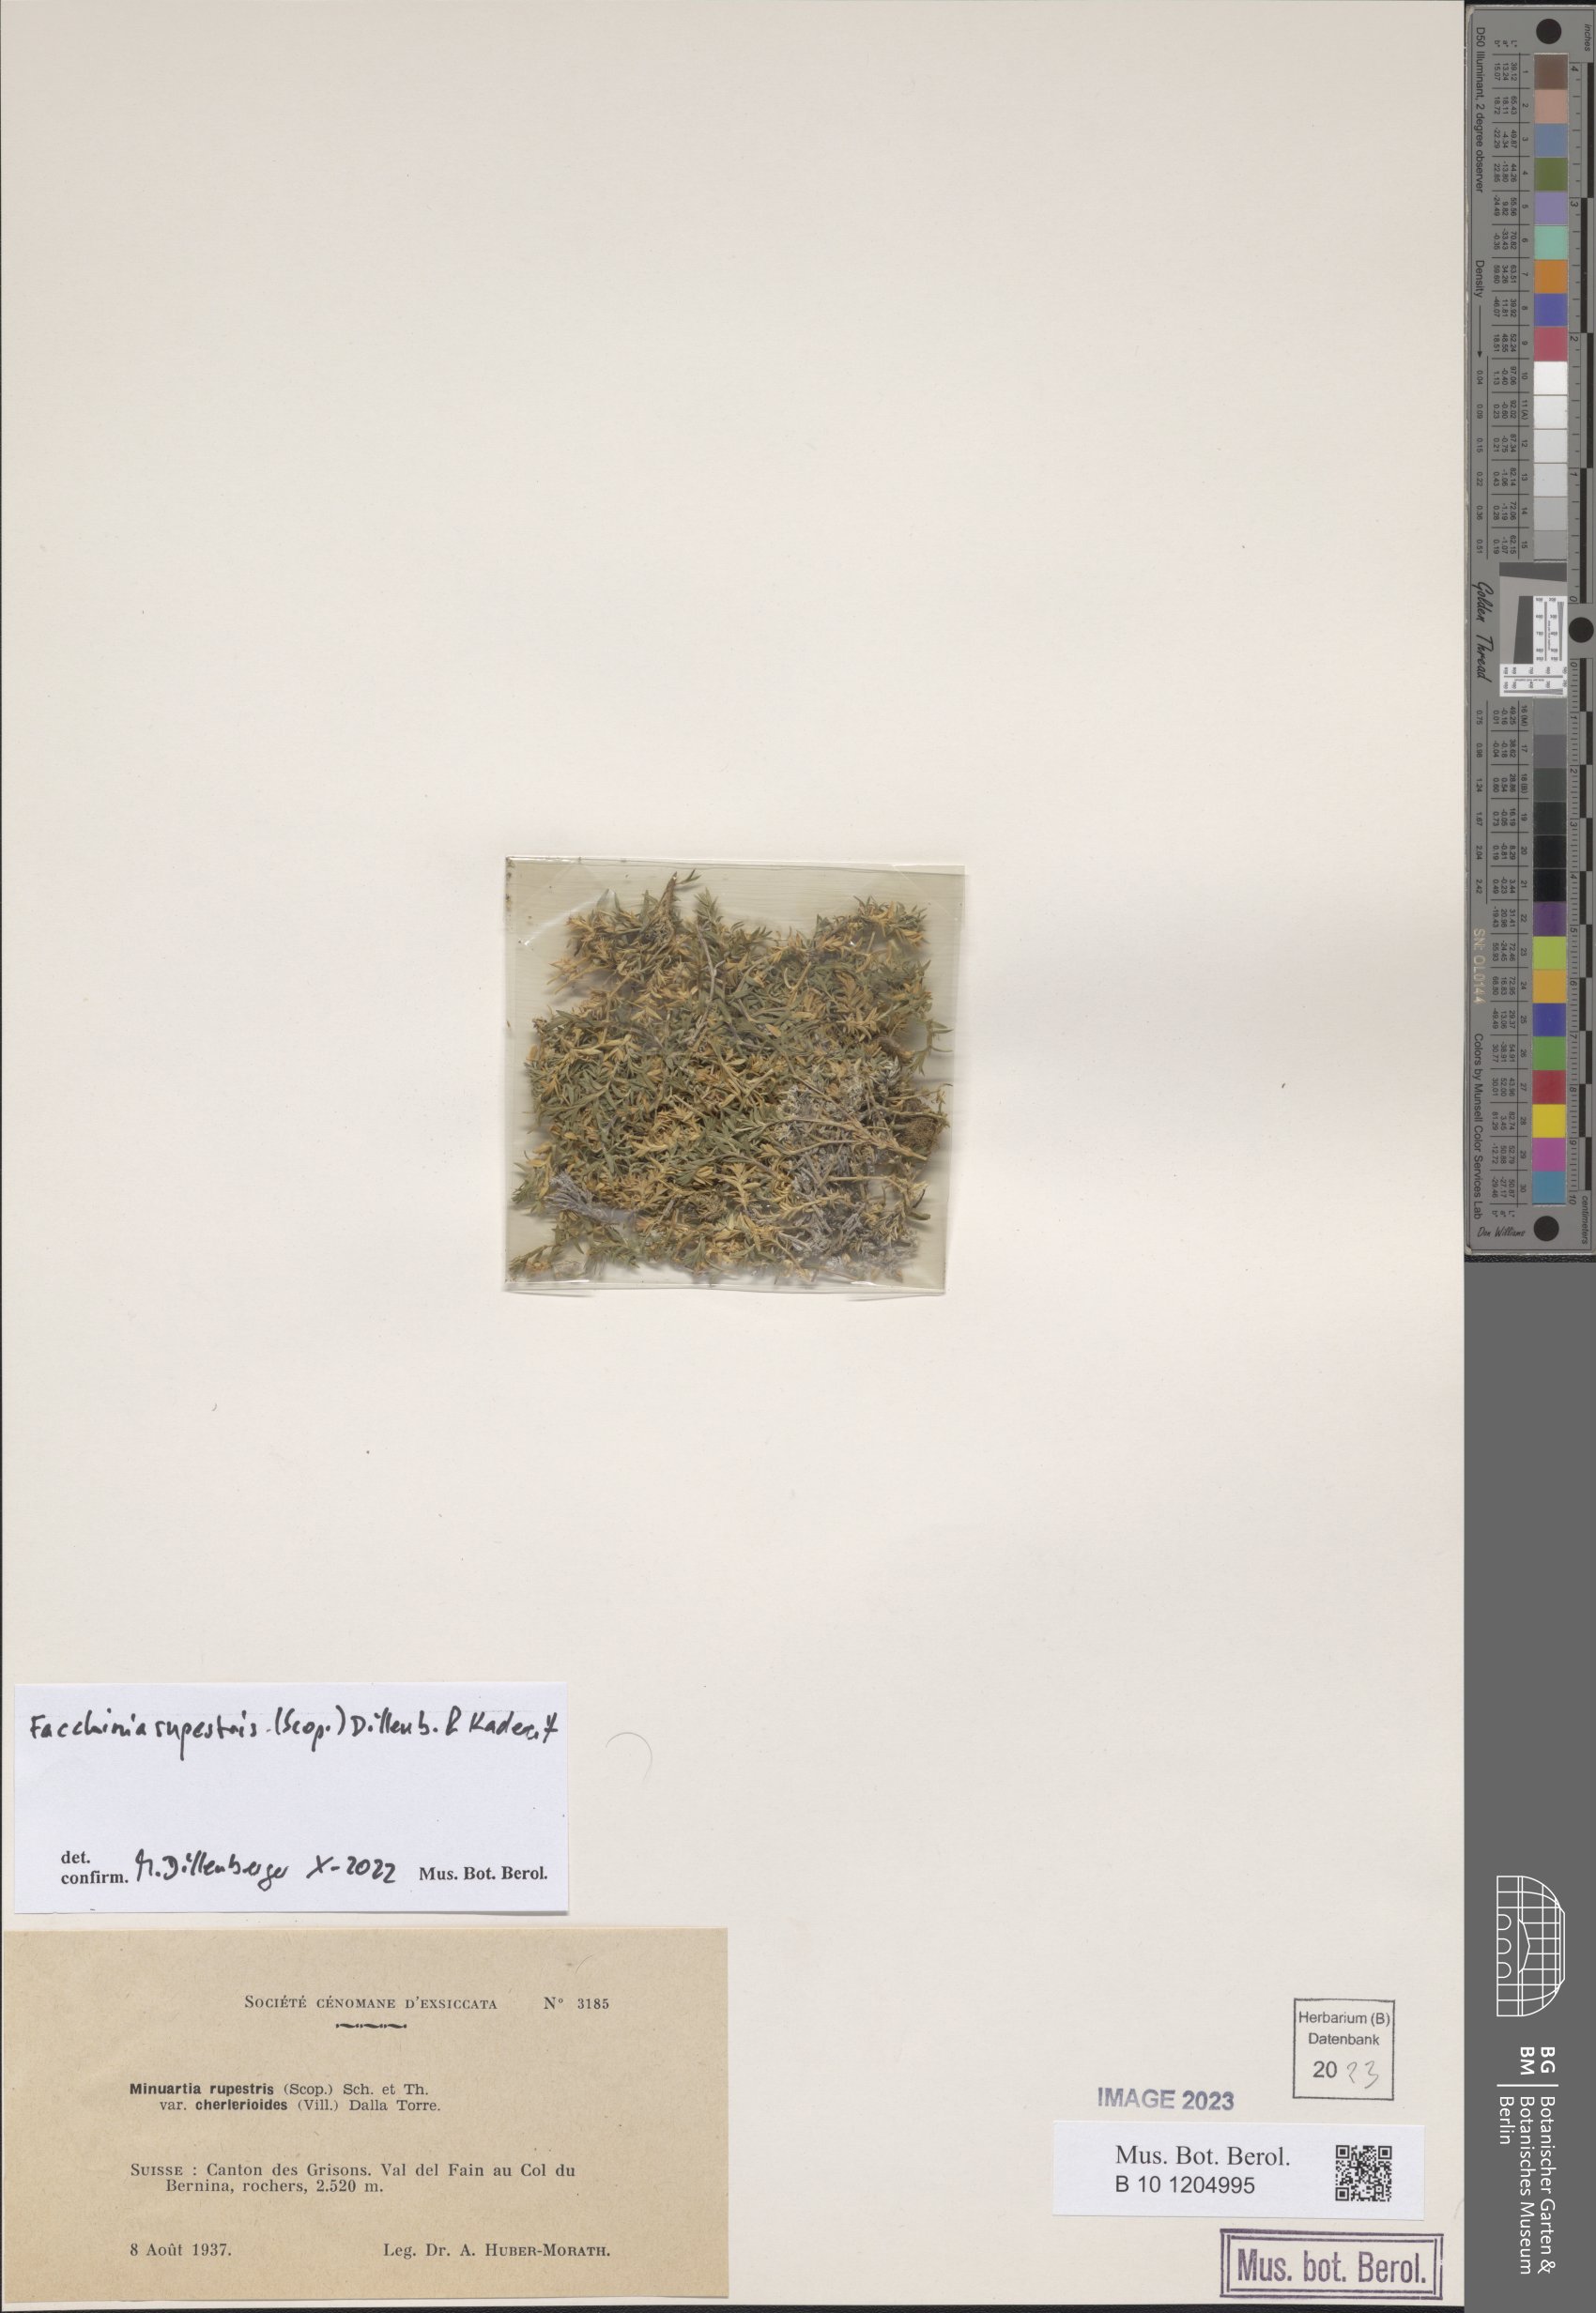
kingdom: Plantae
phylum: Tracheophyta
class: Magnoliopsida
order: Caryophyllales
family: Caryophyllaceae
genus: Facchinia
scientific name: Facchinia rupestris
